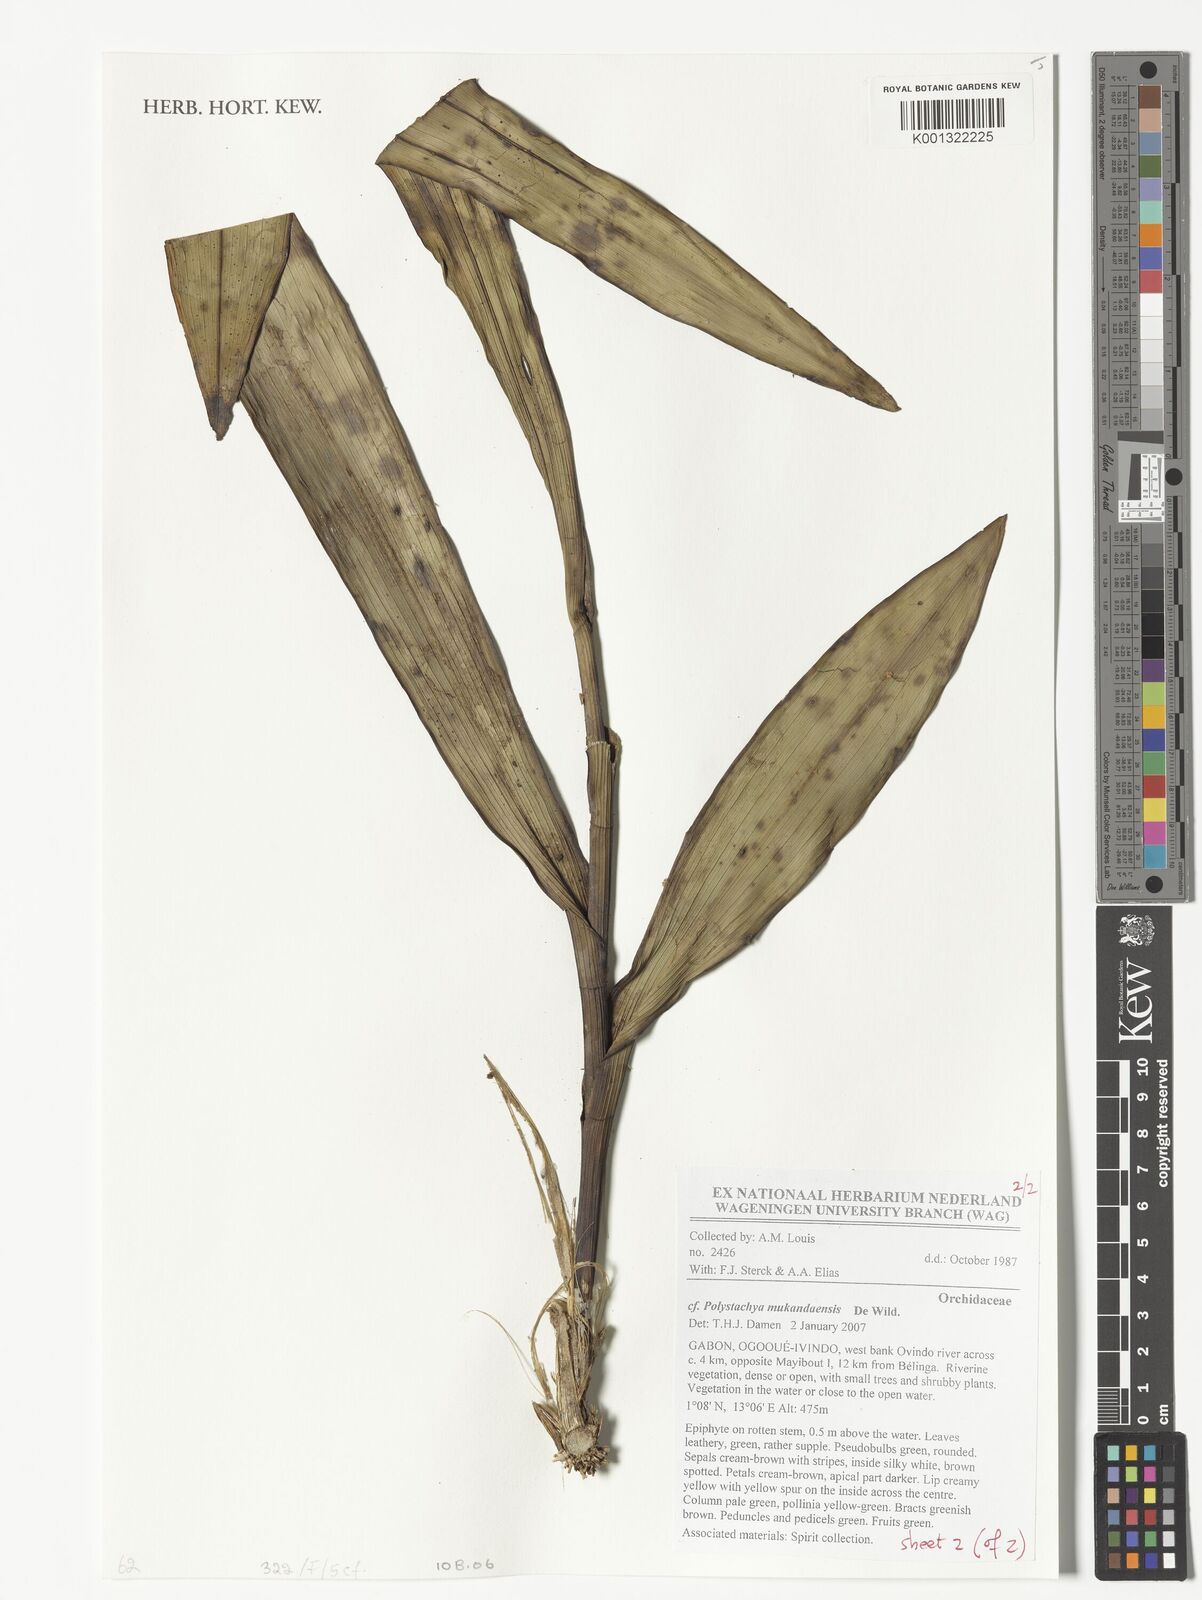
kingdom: Plantae
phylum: Tracheophyta
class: Liliopsida
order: Asparagales
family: Orchidaceae
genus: Polystachya
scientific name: Polystachya mukandaensis
